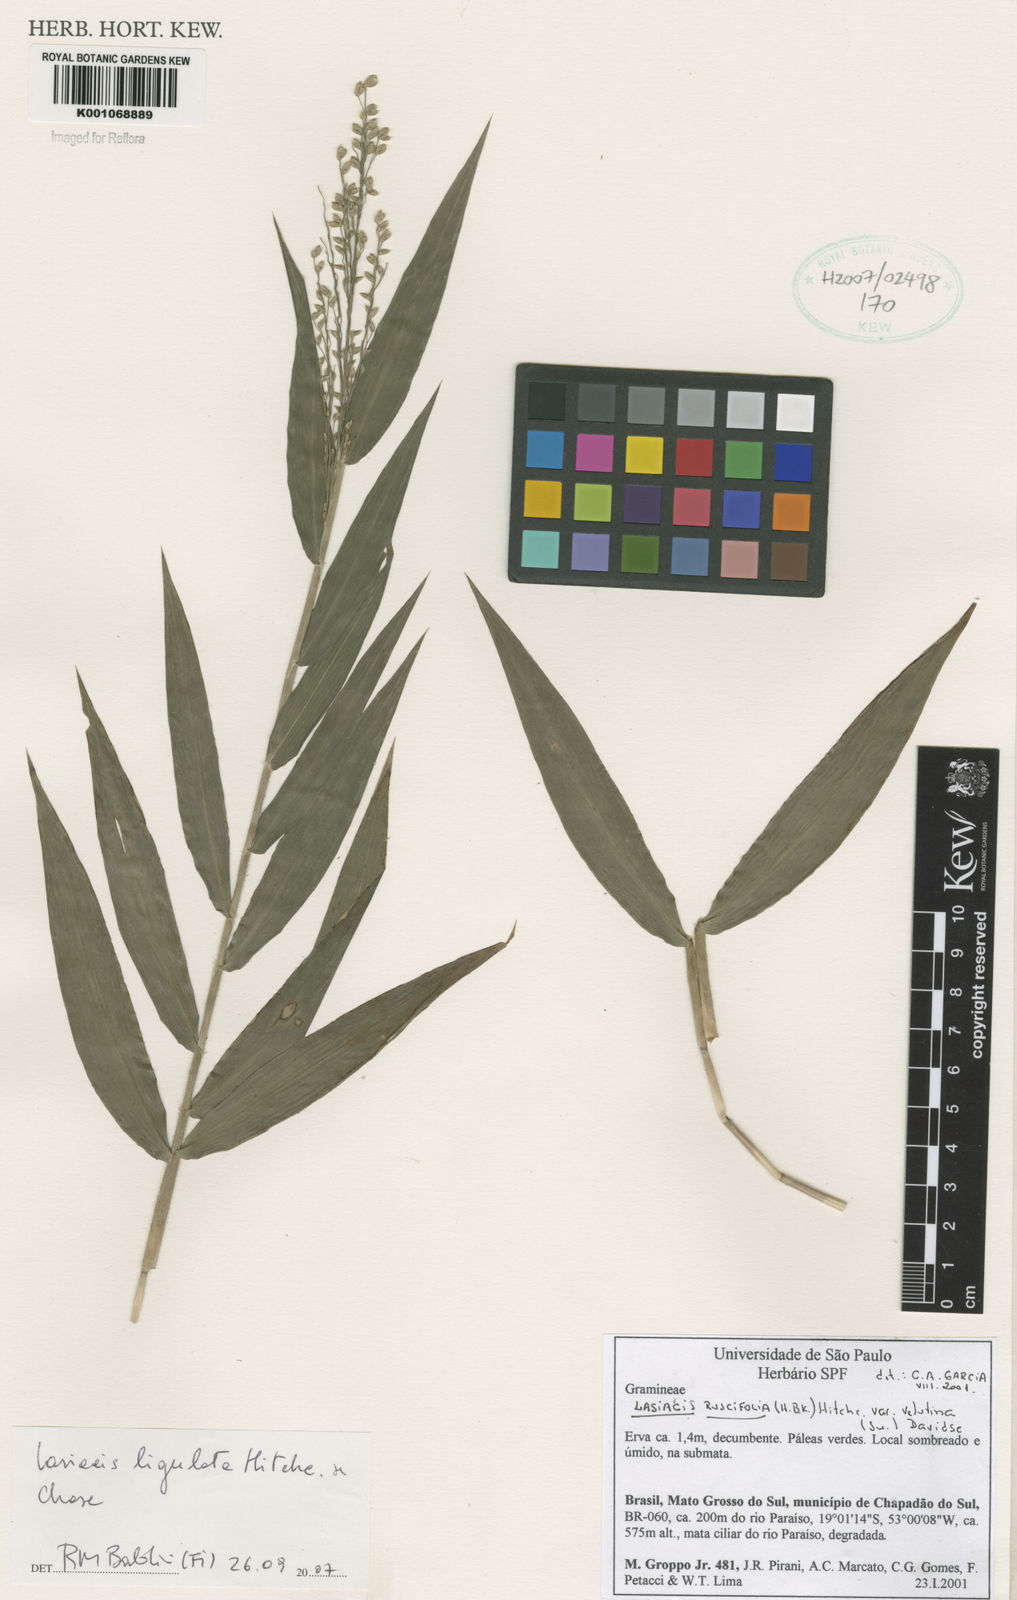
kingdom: Plantae
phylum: Tracheophyta
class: Liliopsida
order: Poales
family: Poaceae
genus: Lasiacis
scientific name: Lasiacis ligulata
